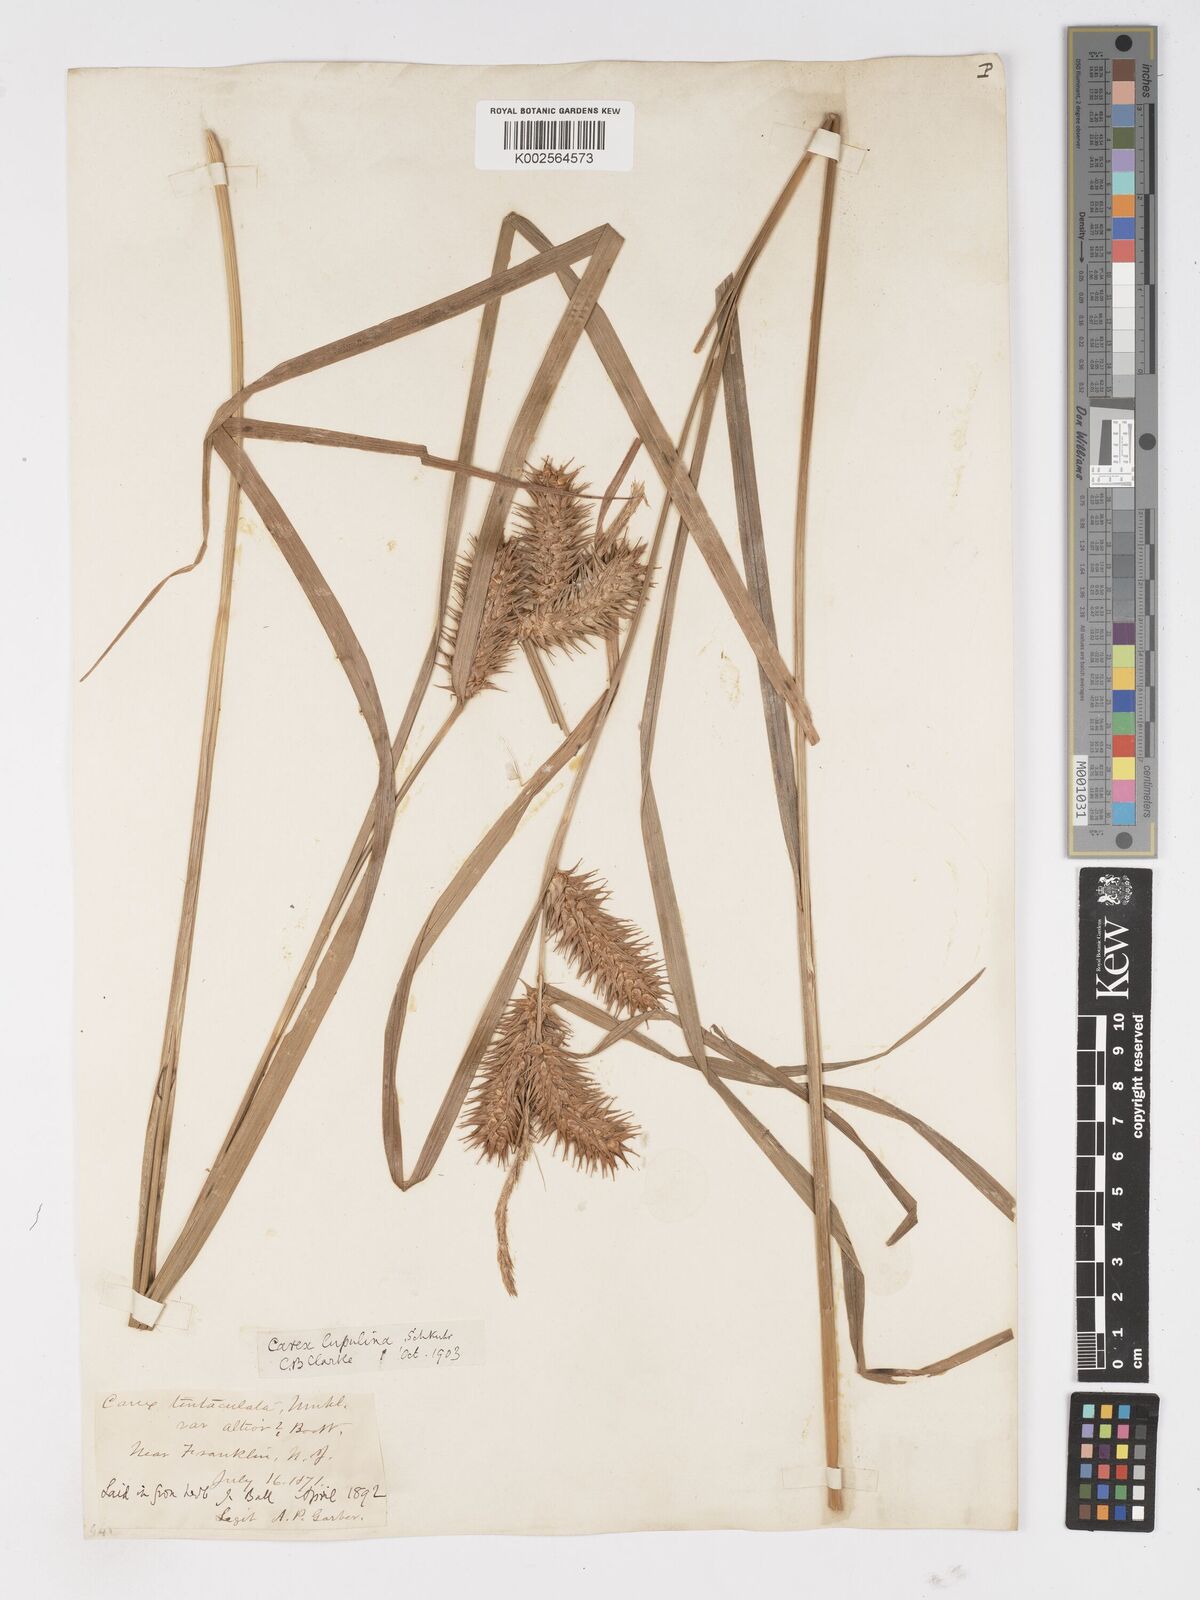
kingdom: Plantae
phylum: Tracheophyta
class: Liliopsida
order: Poales
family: Cyperaceae
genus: Carex
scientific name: Carex lupulina
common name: Hop sedge
